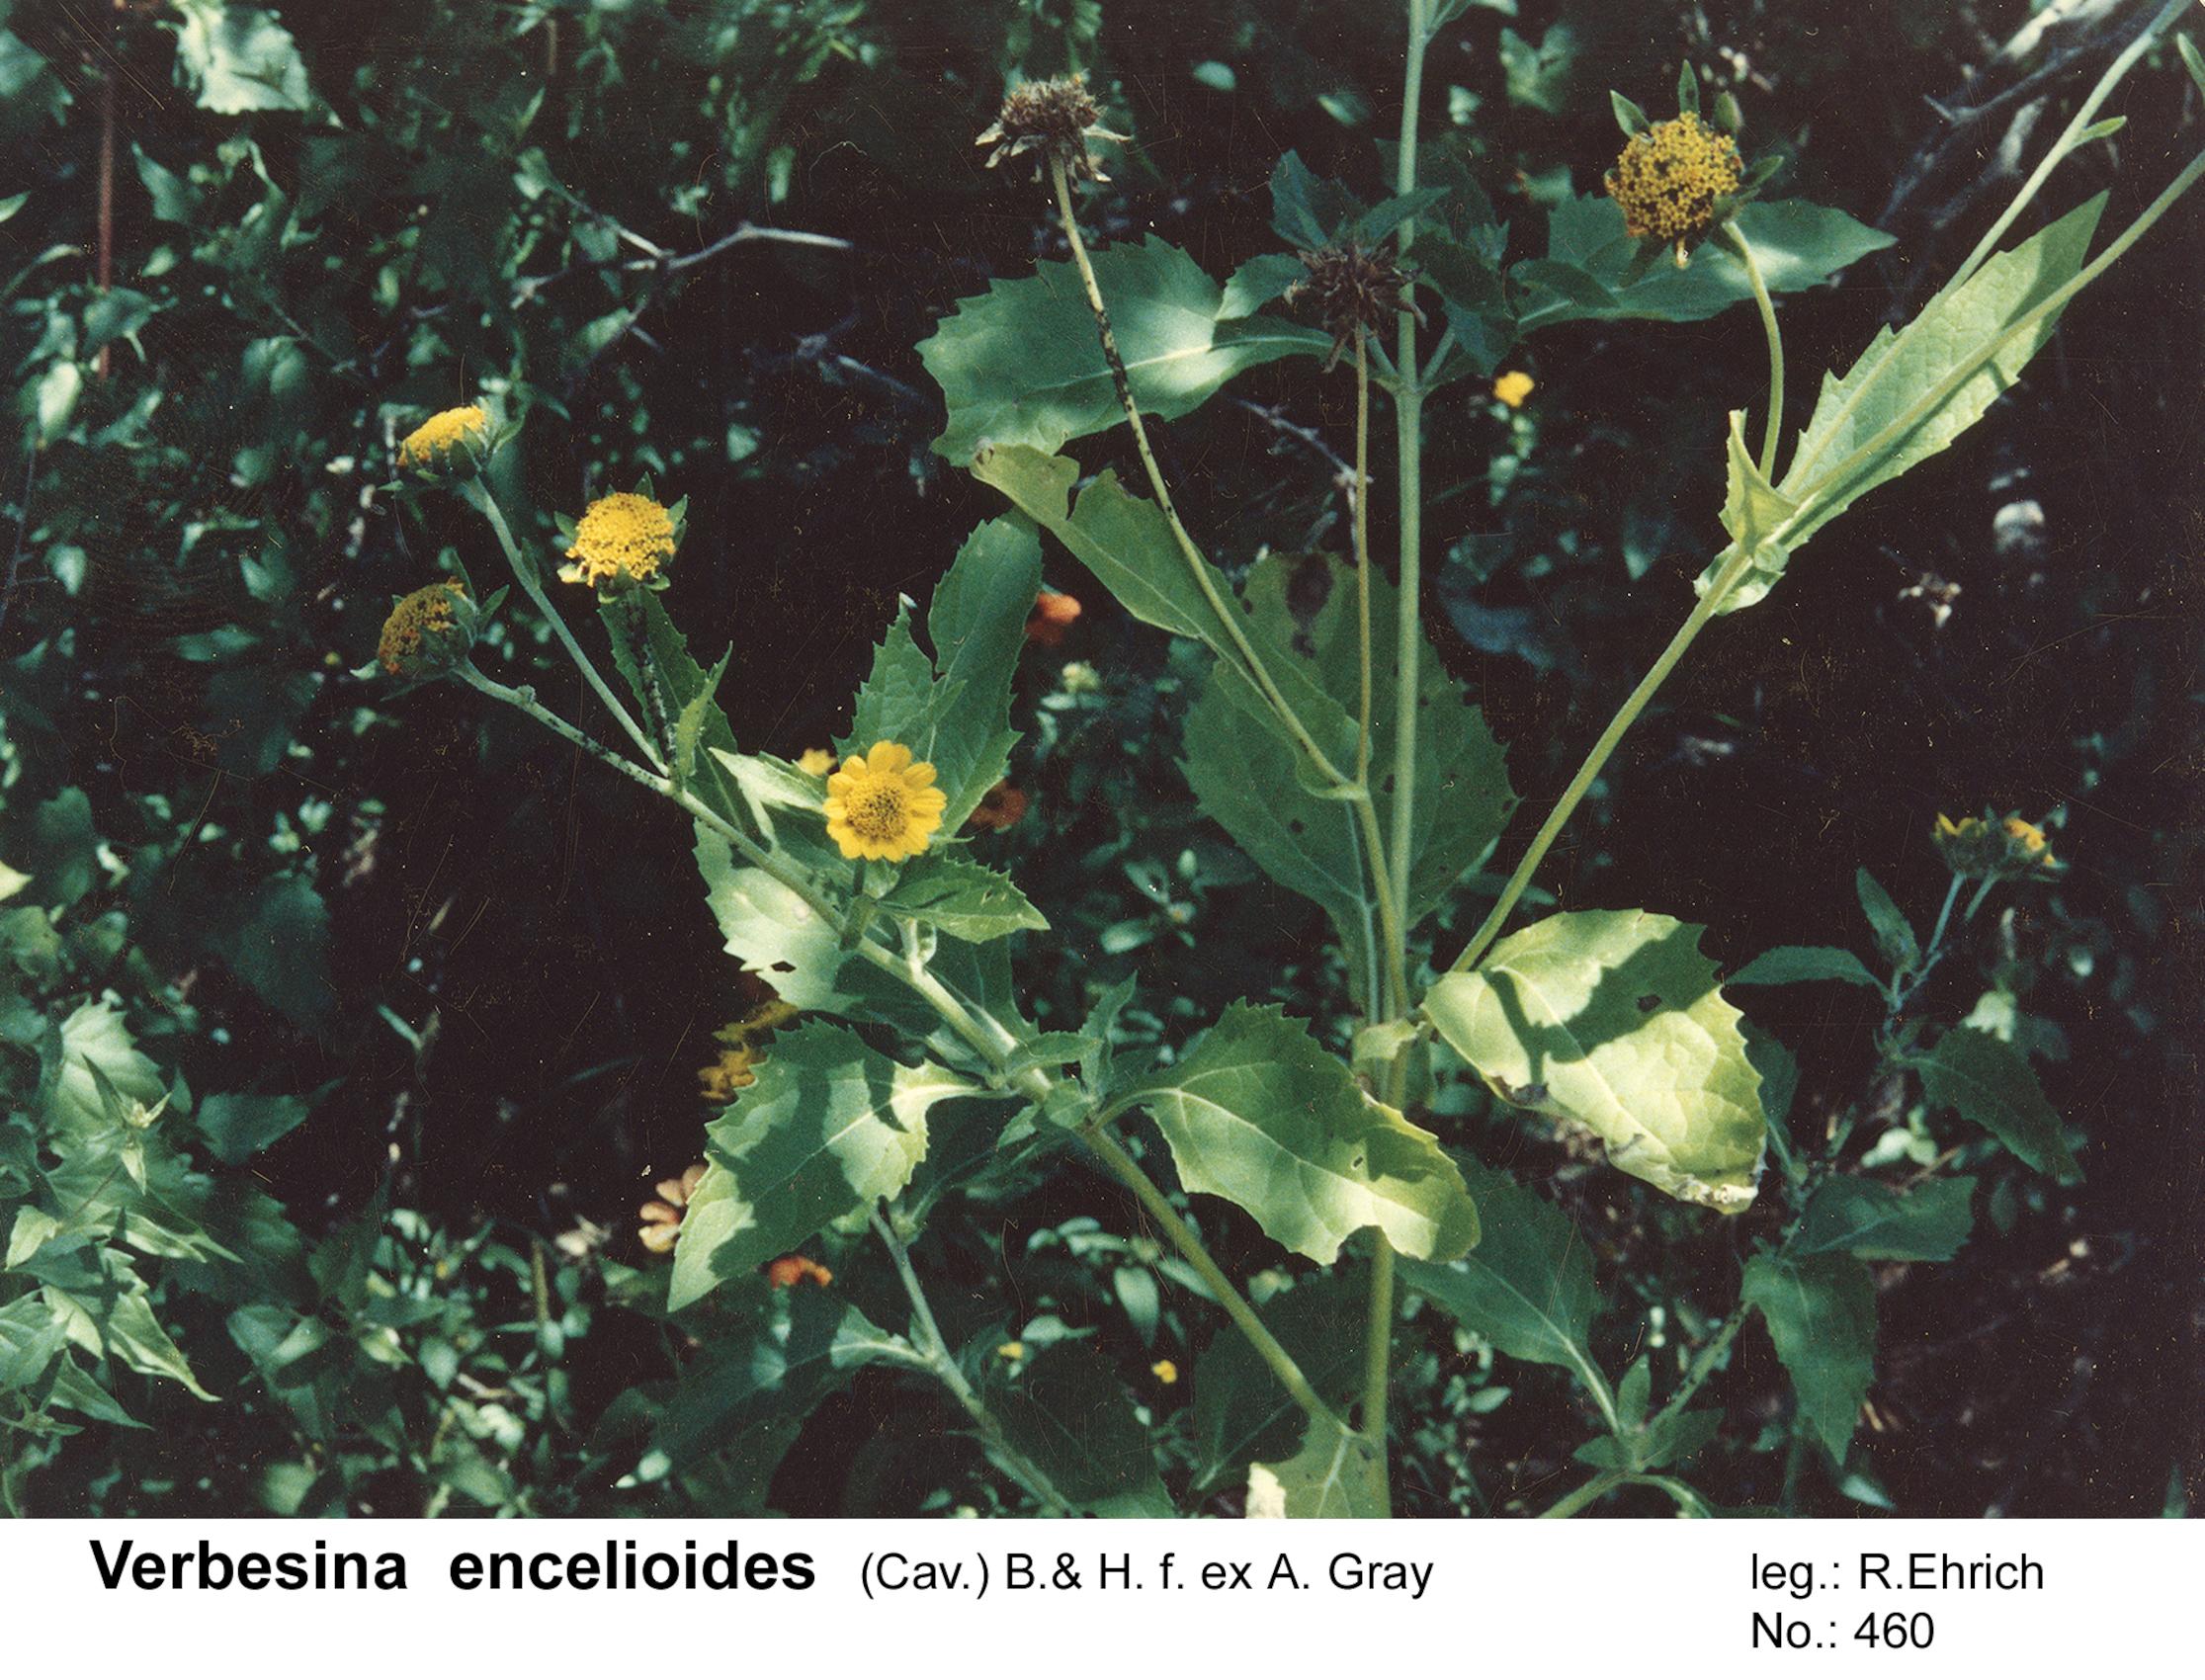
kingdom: Plantae
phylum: Tracheophyta
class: Magnoliopsida
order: Asterales
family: Asteraceae
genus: Verbesina
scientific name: Verbesina encelioides
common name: Golden crownbeard
